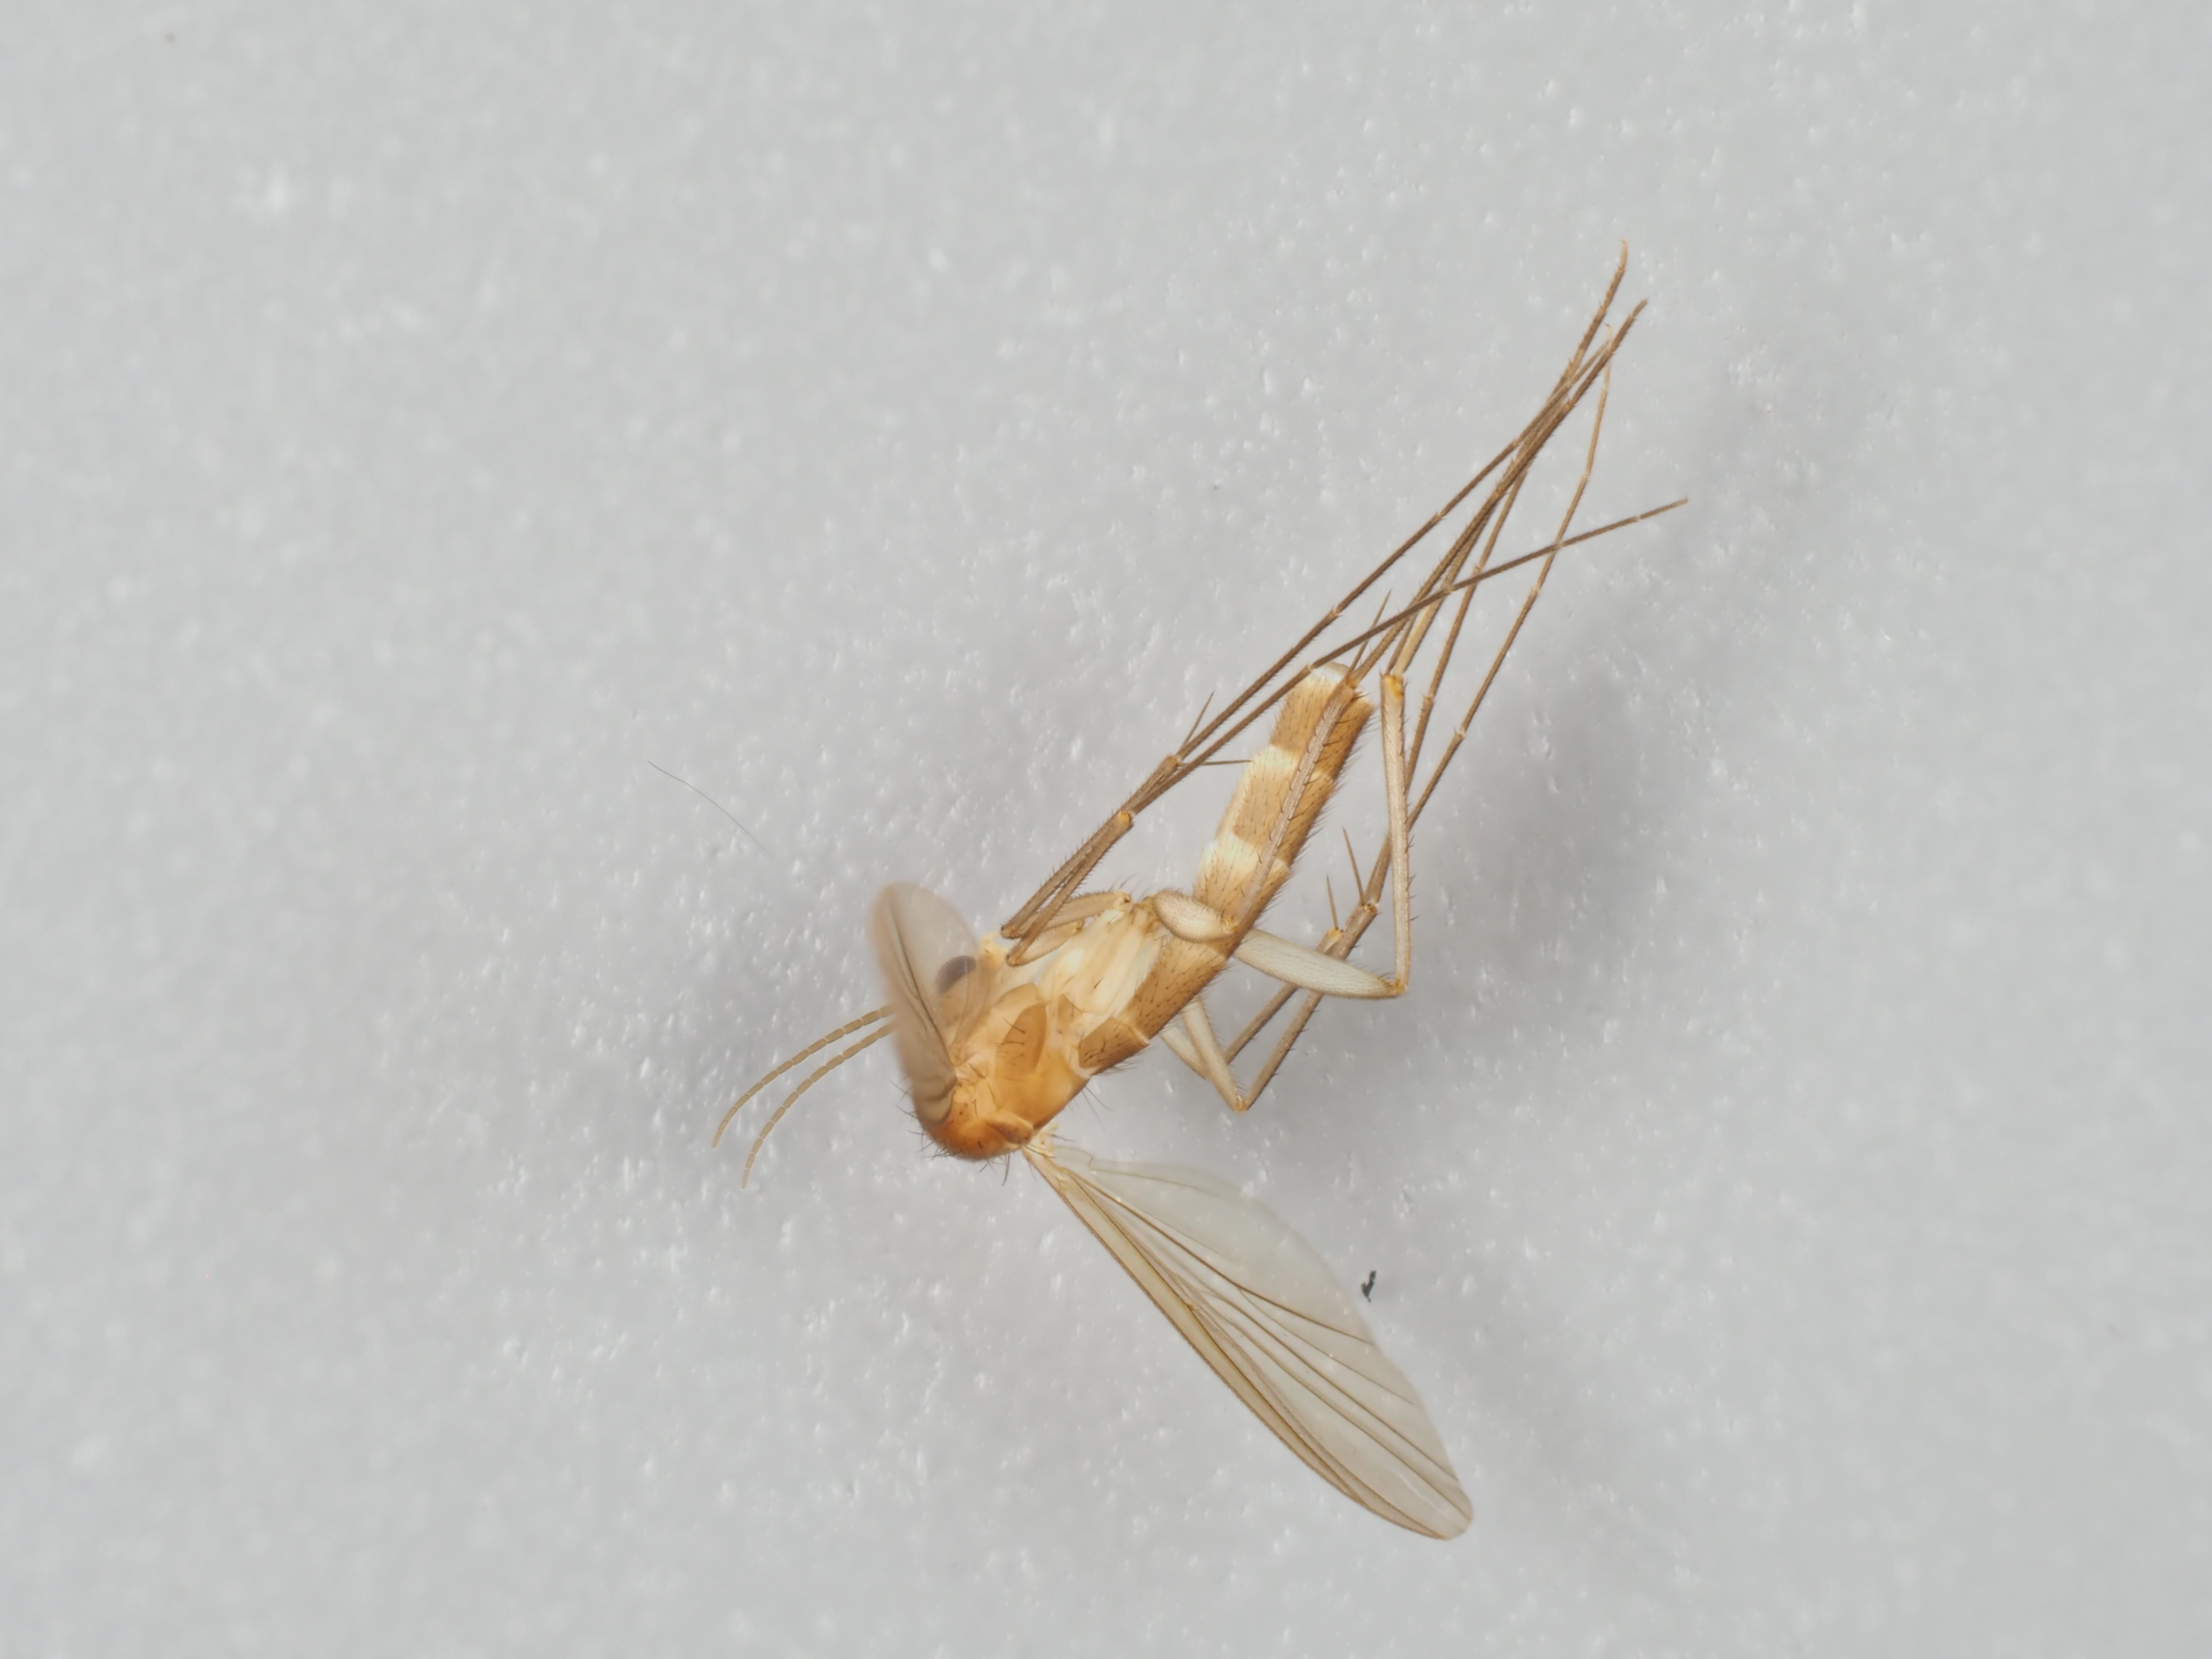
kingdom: Animalia
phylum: Arthropoda
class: Insecta
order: Diptera
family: Mycetophilidae
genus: Exechia
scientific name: Exechia aemula
